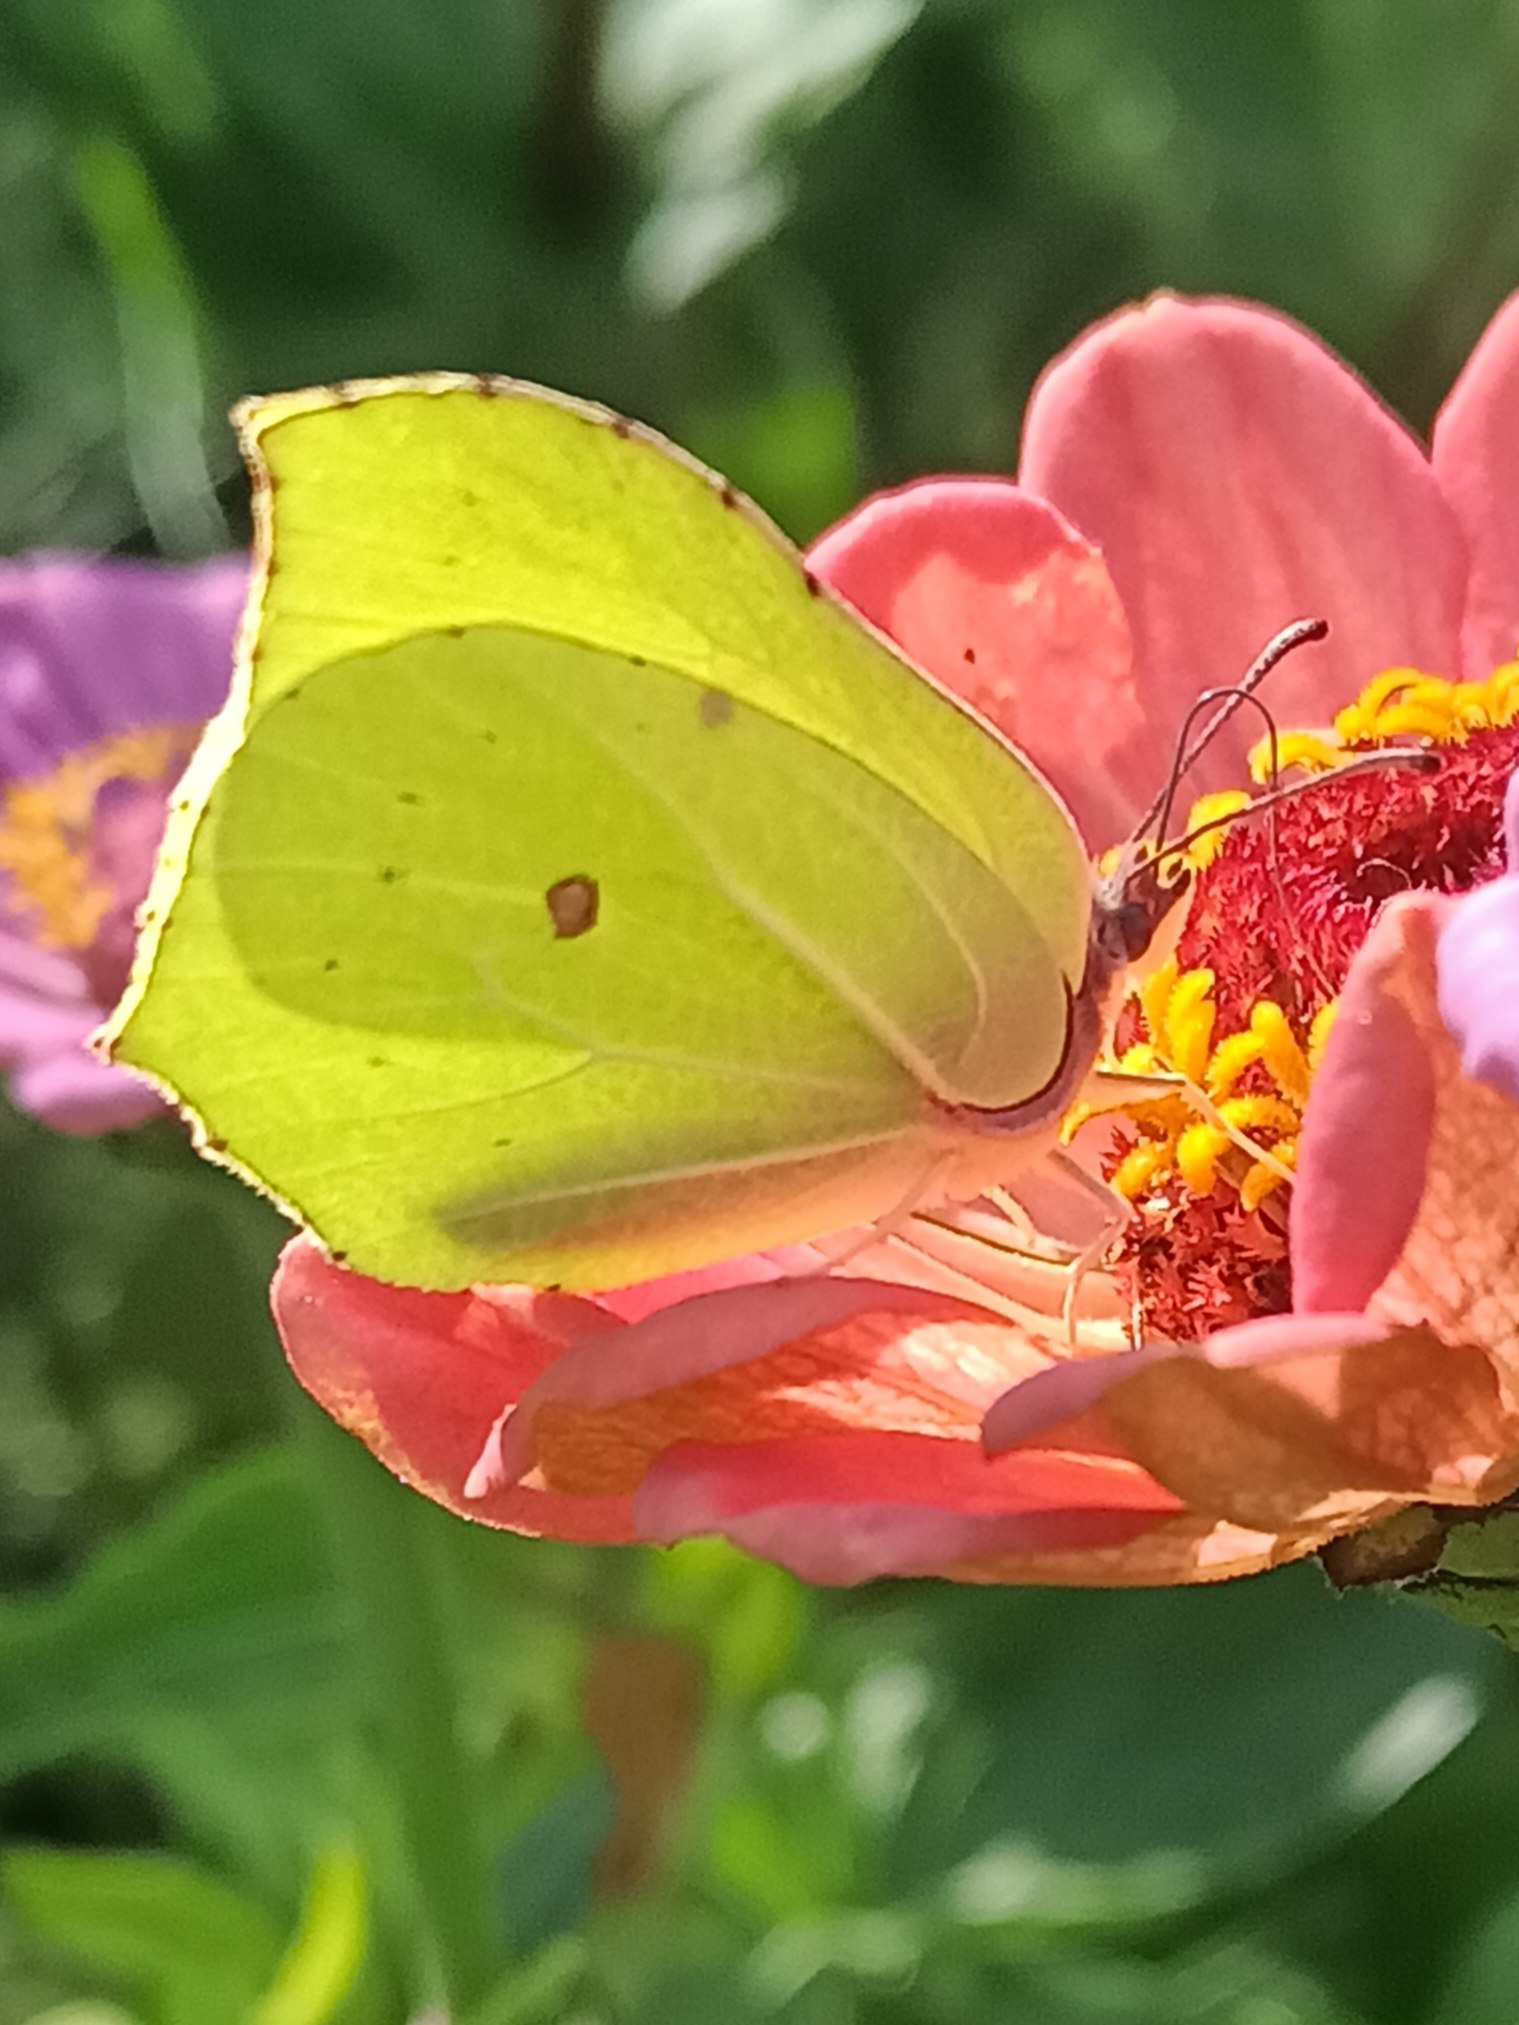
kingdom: Animalia
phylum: Arthropoda
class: Insecta
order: Lepidoptera
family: Pieridae
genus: Gonepteryx
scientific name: Gonepteryx rhamni
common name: Citronsommerfugl
